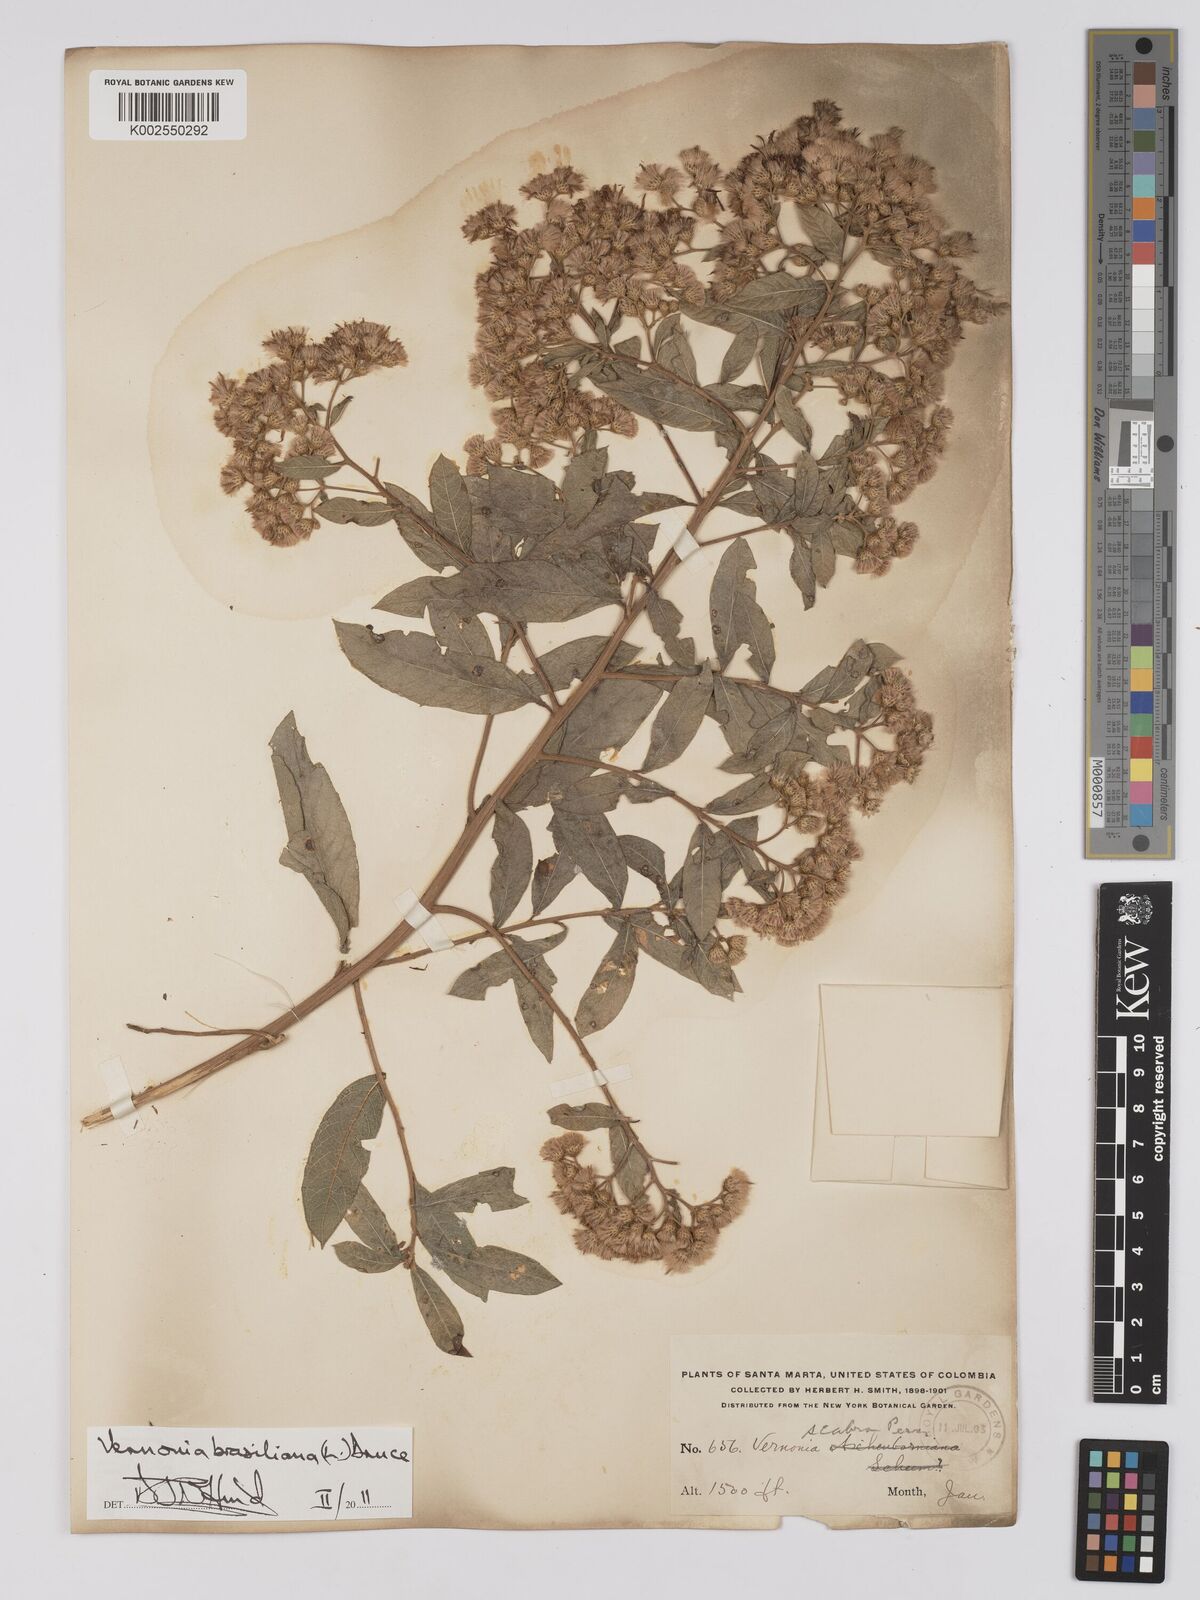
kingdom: Plantae
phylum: Tracheophyta
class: Magnoliopsida
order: Asterales
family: Asteraceae
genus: Vernonanthura
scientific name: Vernonanthura brasiliana
